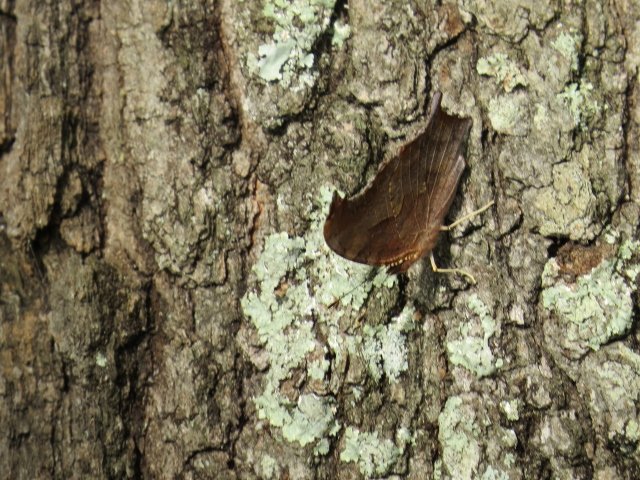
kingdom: Animalia
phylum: Arthropoda
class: Insecta
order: Lepidoptera
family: Nymphalidae
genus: Polygonia
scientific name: Polygonia interrogationis
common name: Question Mark
